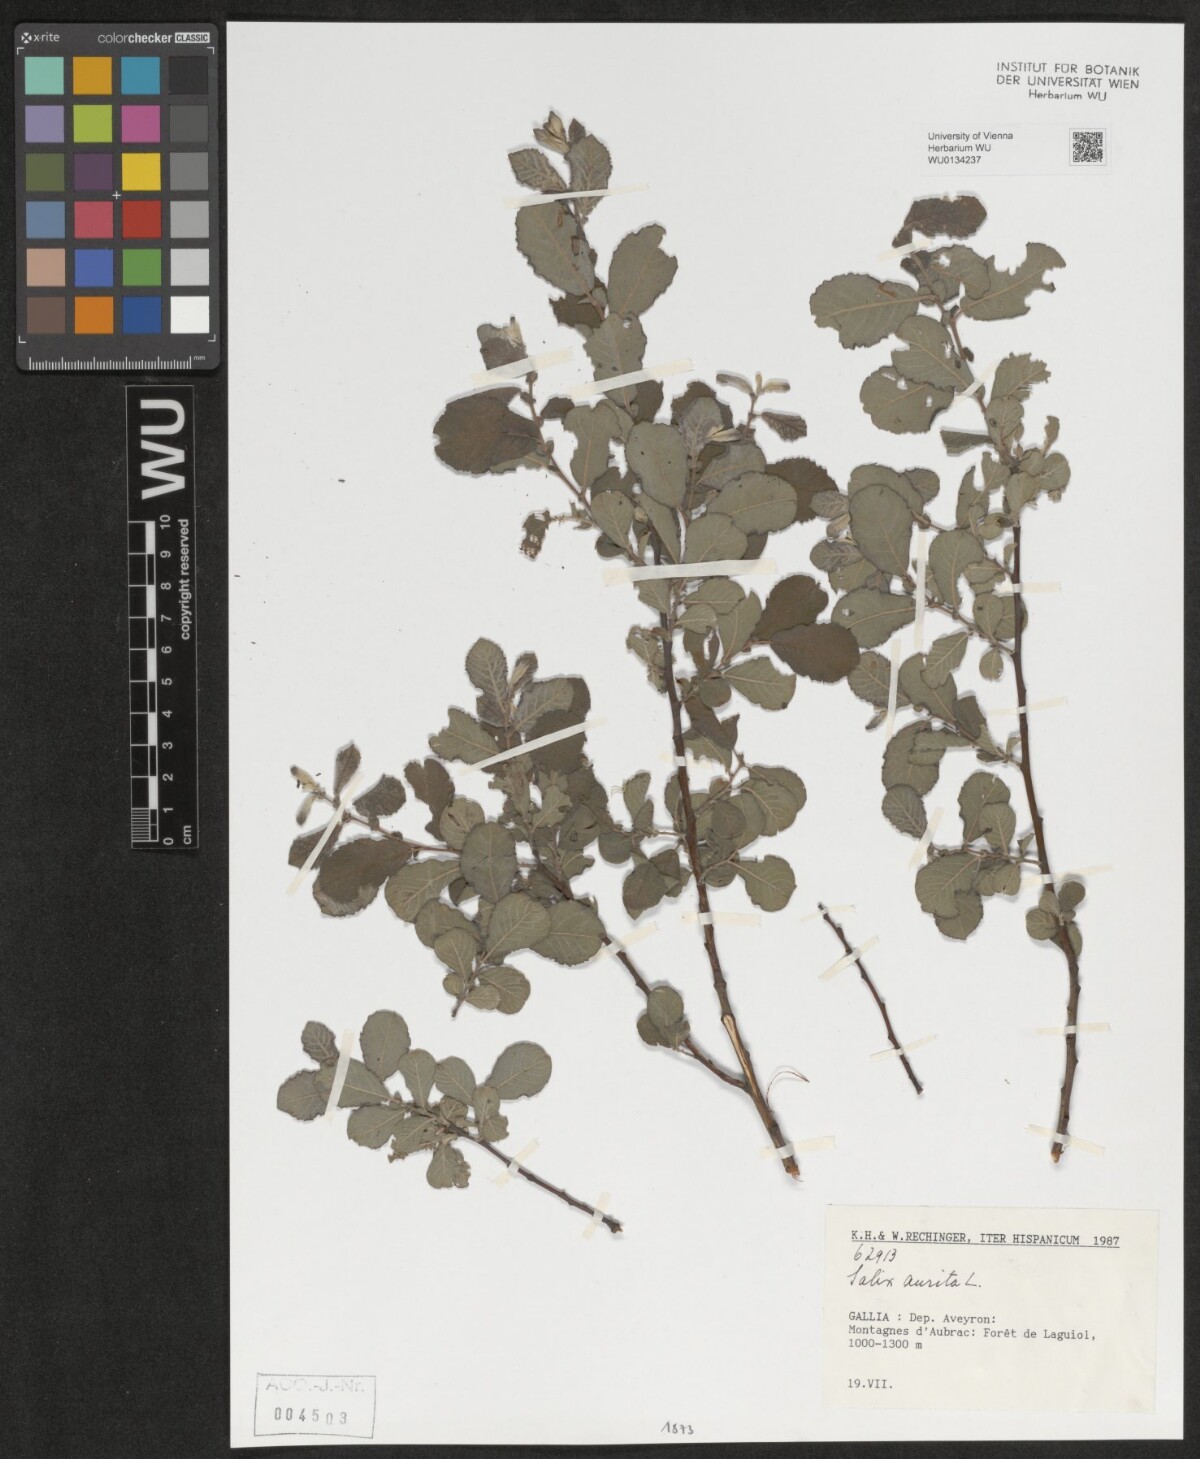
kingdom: Plantae
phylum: Tracheophyta
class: Magnoliopsida
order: Malpighiales
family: Salicaceae
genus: Salix
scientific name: Salix aurita
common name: Eared willow
